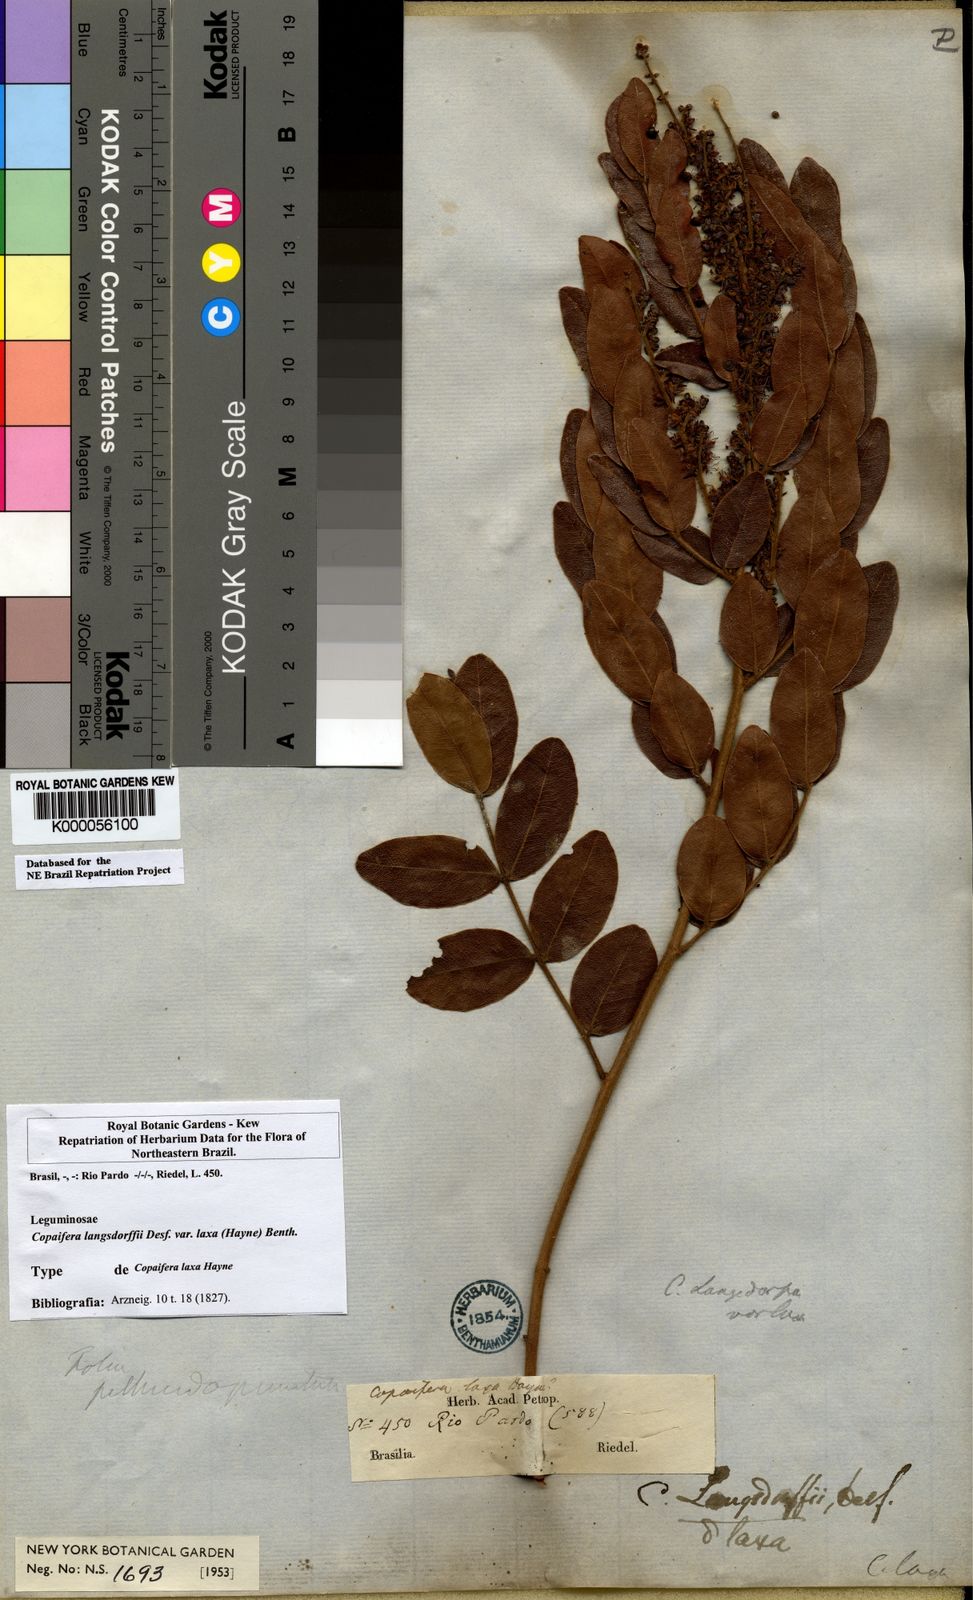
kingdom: Plantae
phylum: Tracheophyta
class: Magnoliopsida
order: Fabales
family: Fabaceae
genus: Copaifera
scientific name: Copaifera langsdorffii
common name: Brazilian diesel tree
